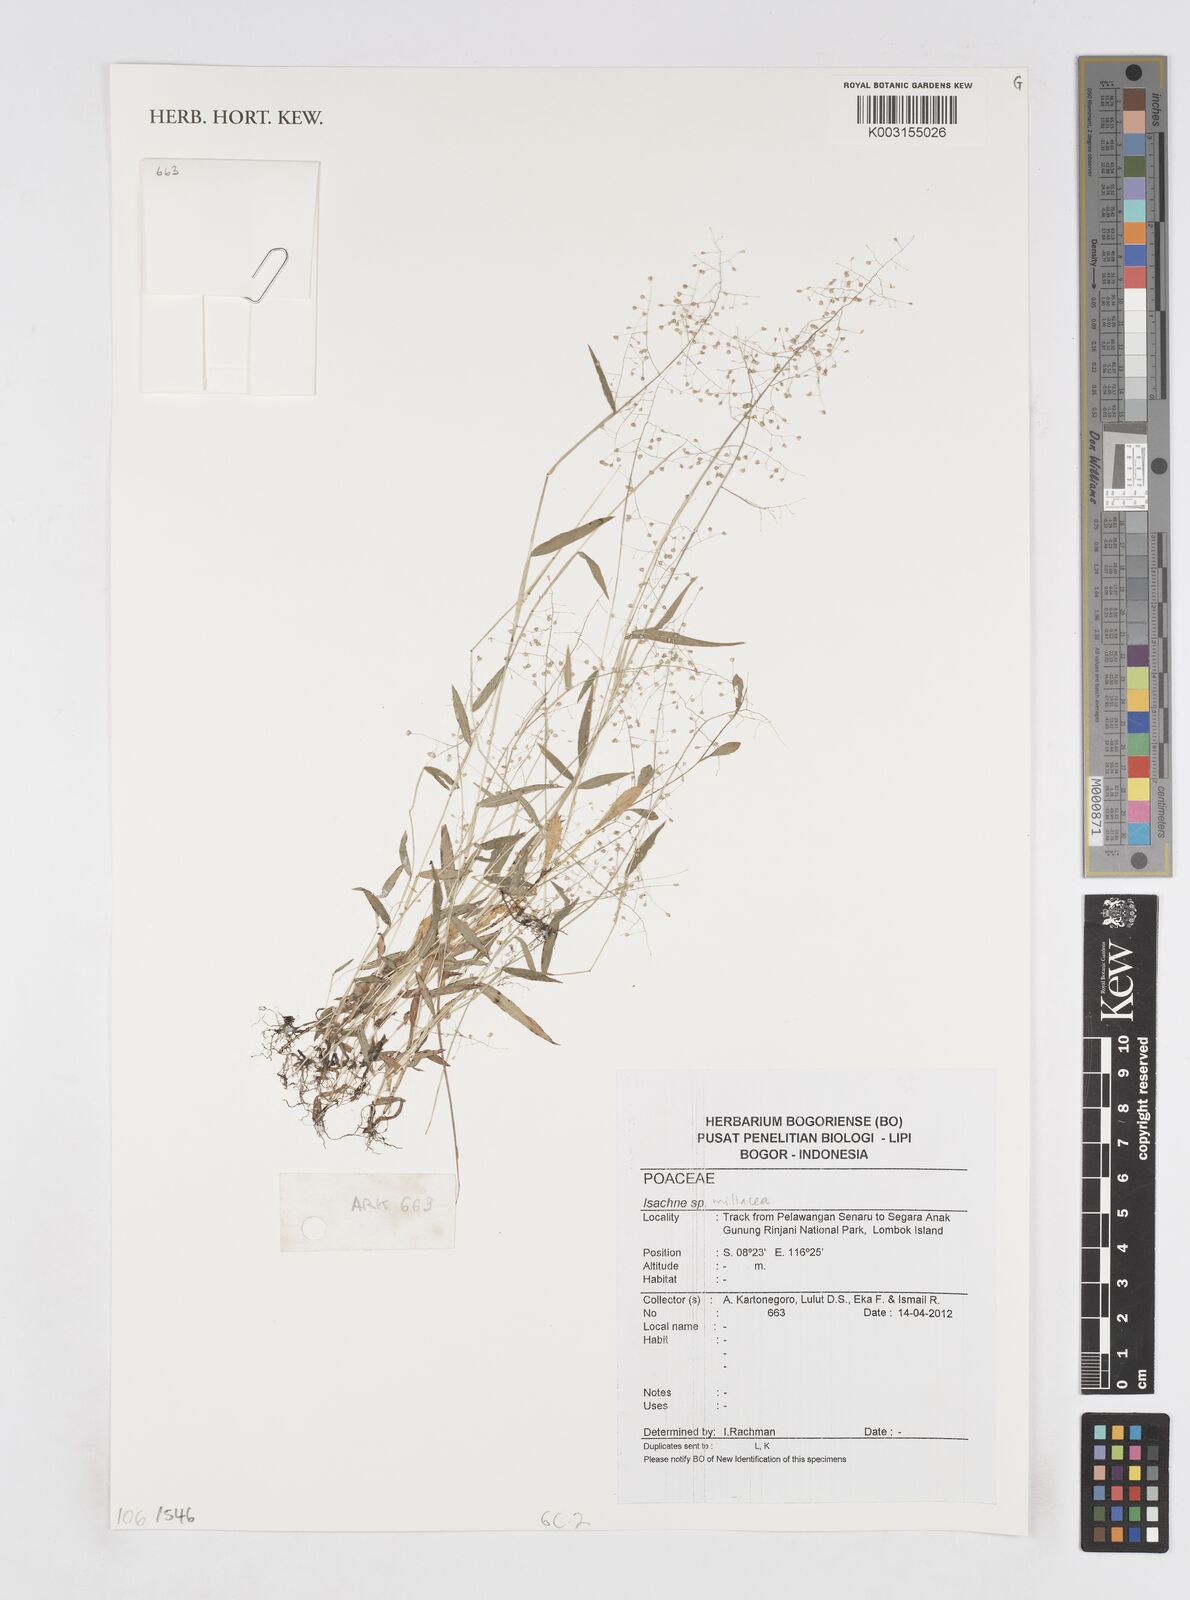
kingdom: Plantae
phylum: Tracheophyta
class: Liliopsida
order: Poales
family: Poaceae
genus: Isachne
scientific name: Isachne globosa
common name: Swamp millet
